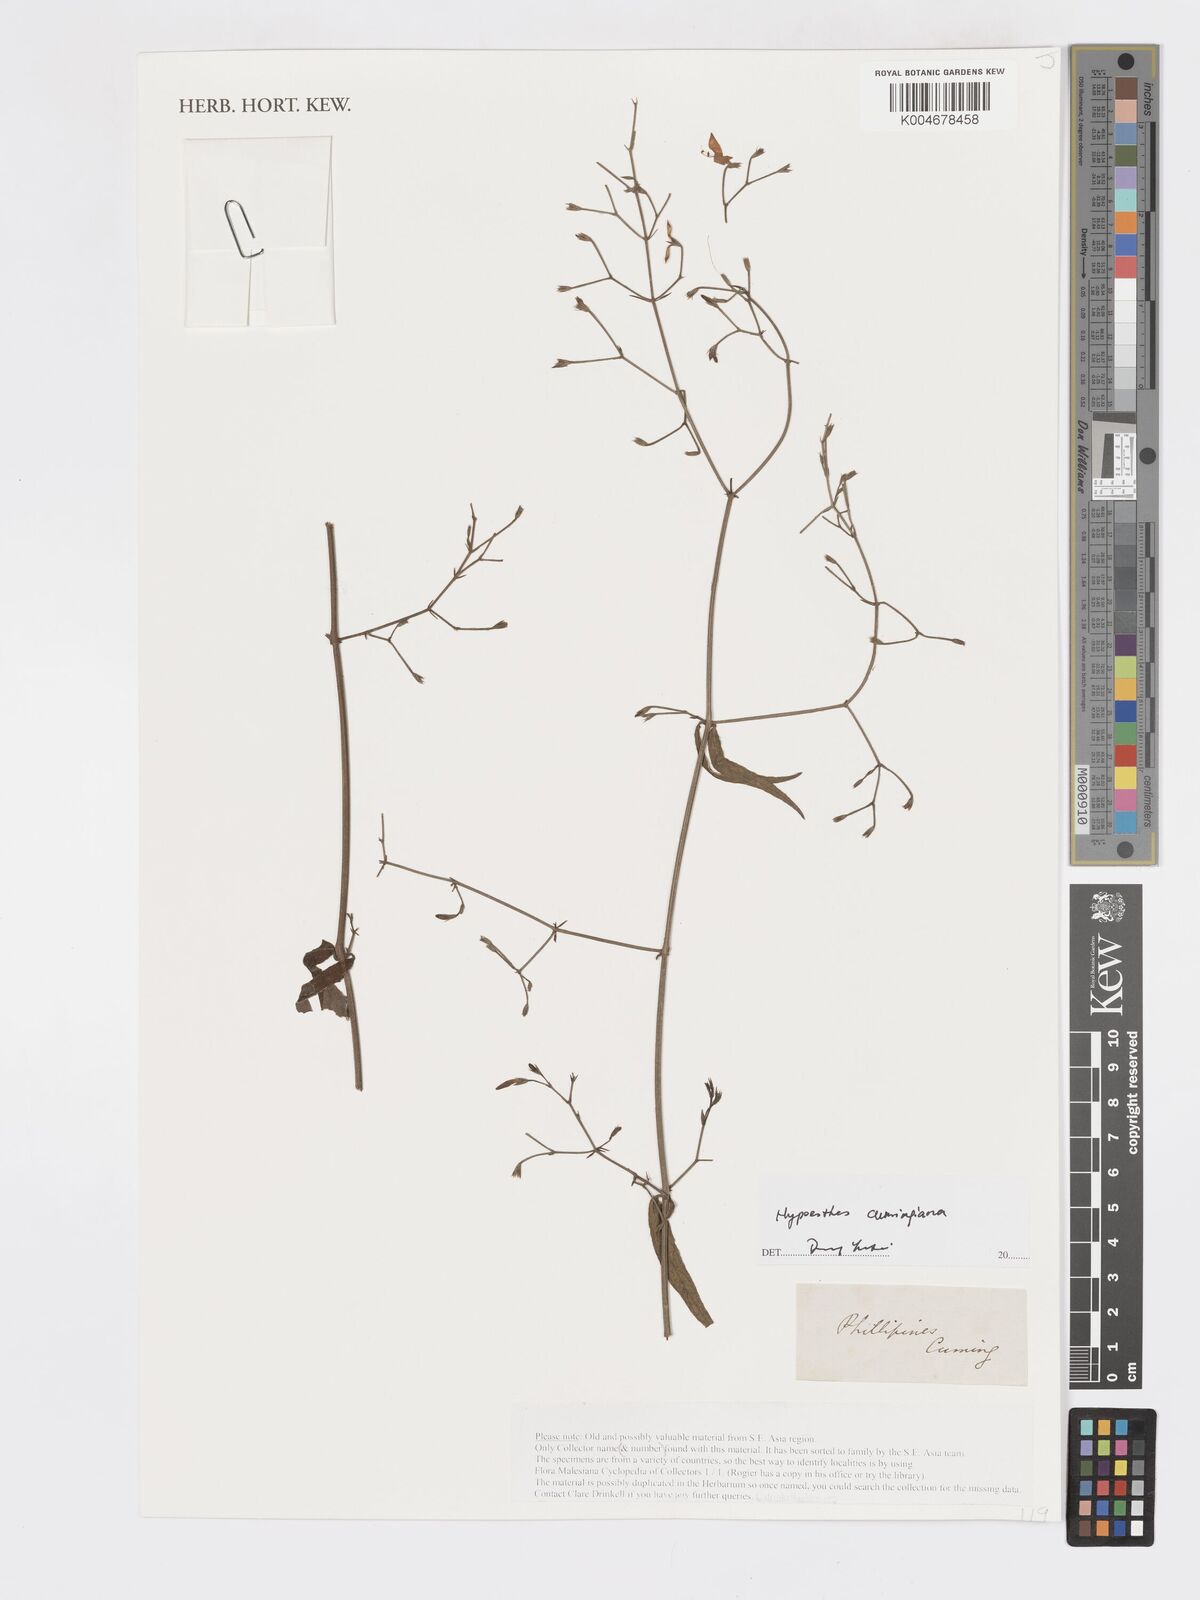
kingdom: Plantae
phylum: Tracheophyta
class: Magnoliopsida
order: Lamiales
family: Acanthaceae
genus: Hypoestes
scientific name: Hypoestes cumingiana
